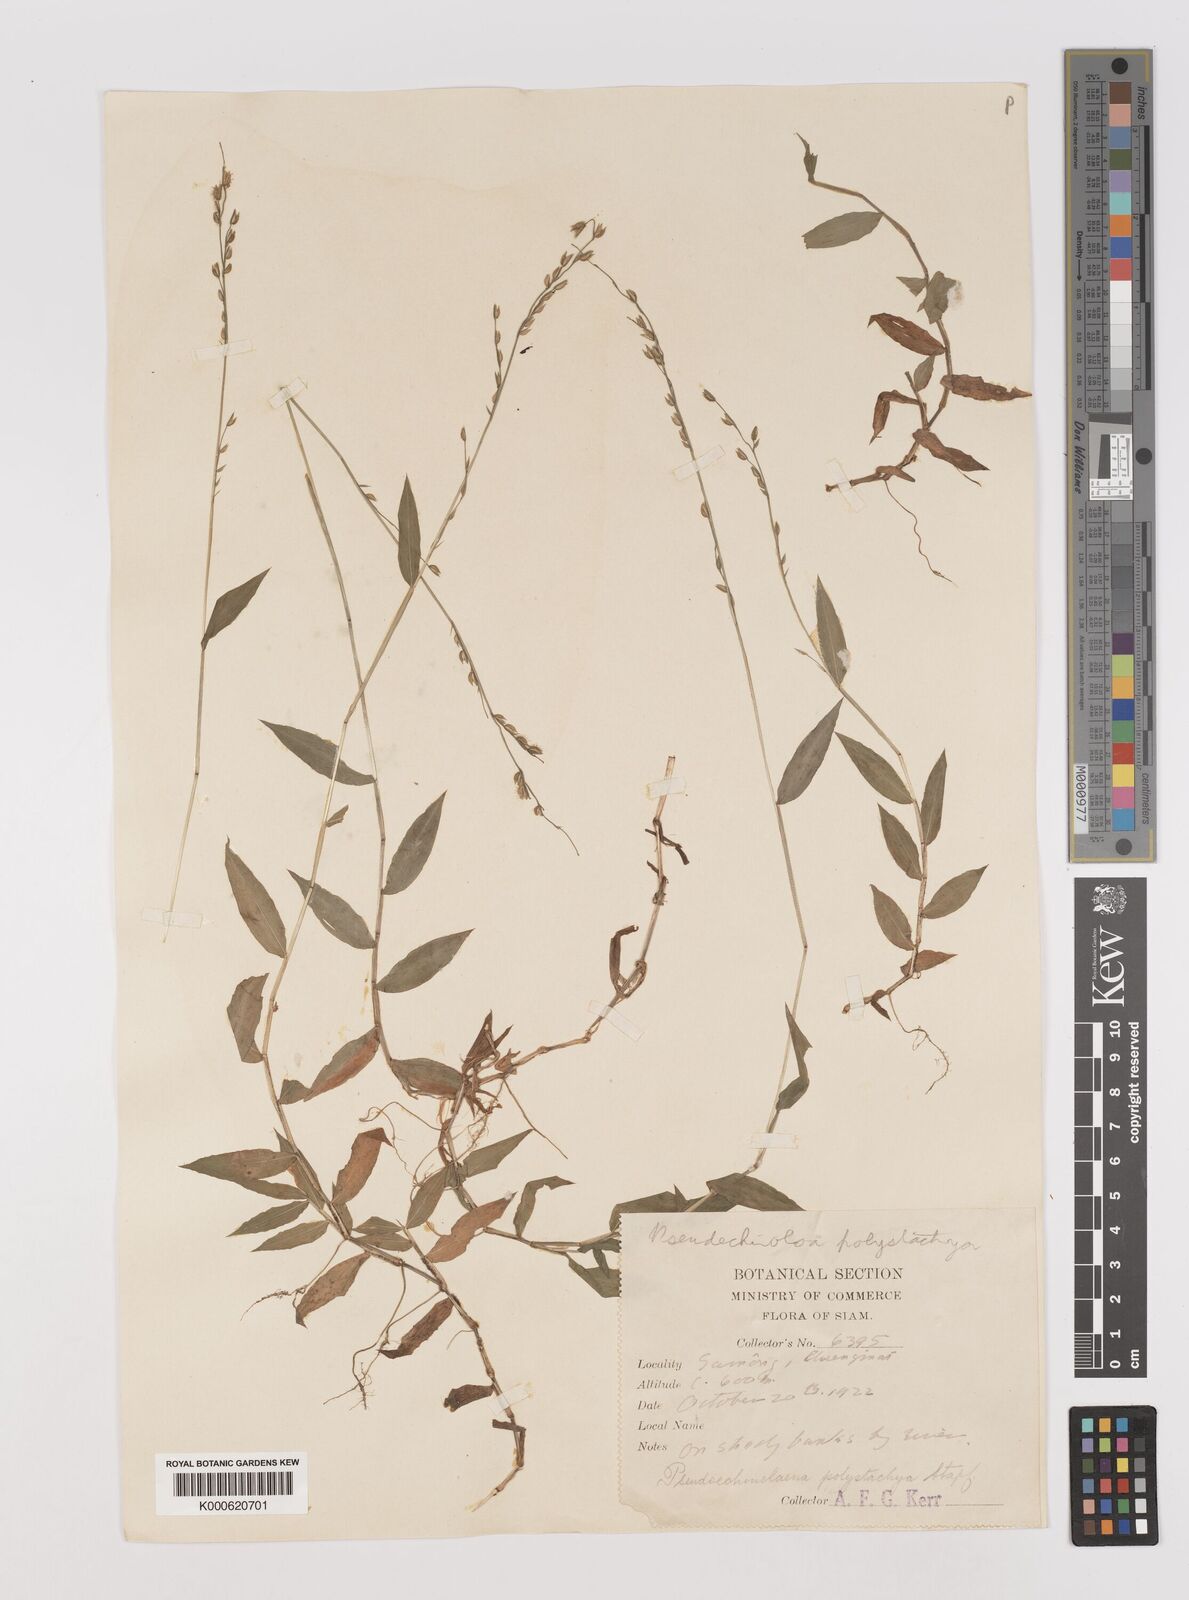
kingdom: Plantae
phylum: Tracheophyta
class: Liliopsida
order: Poales
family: Poaceae
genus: Pseudechinolaena
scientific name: Pseudechinolaena polystachya
